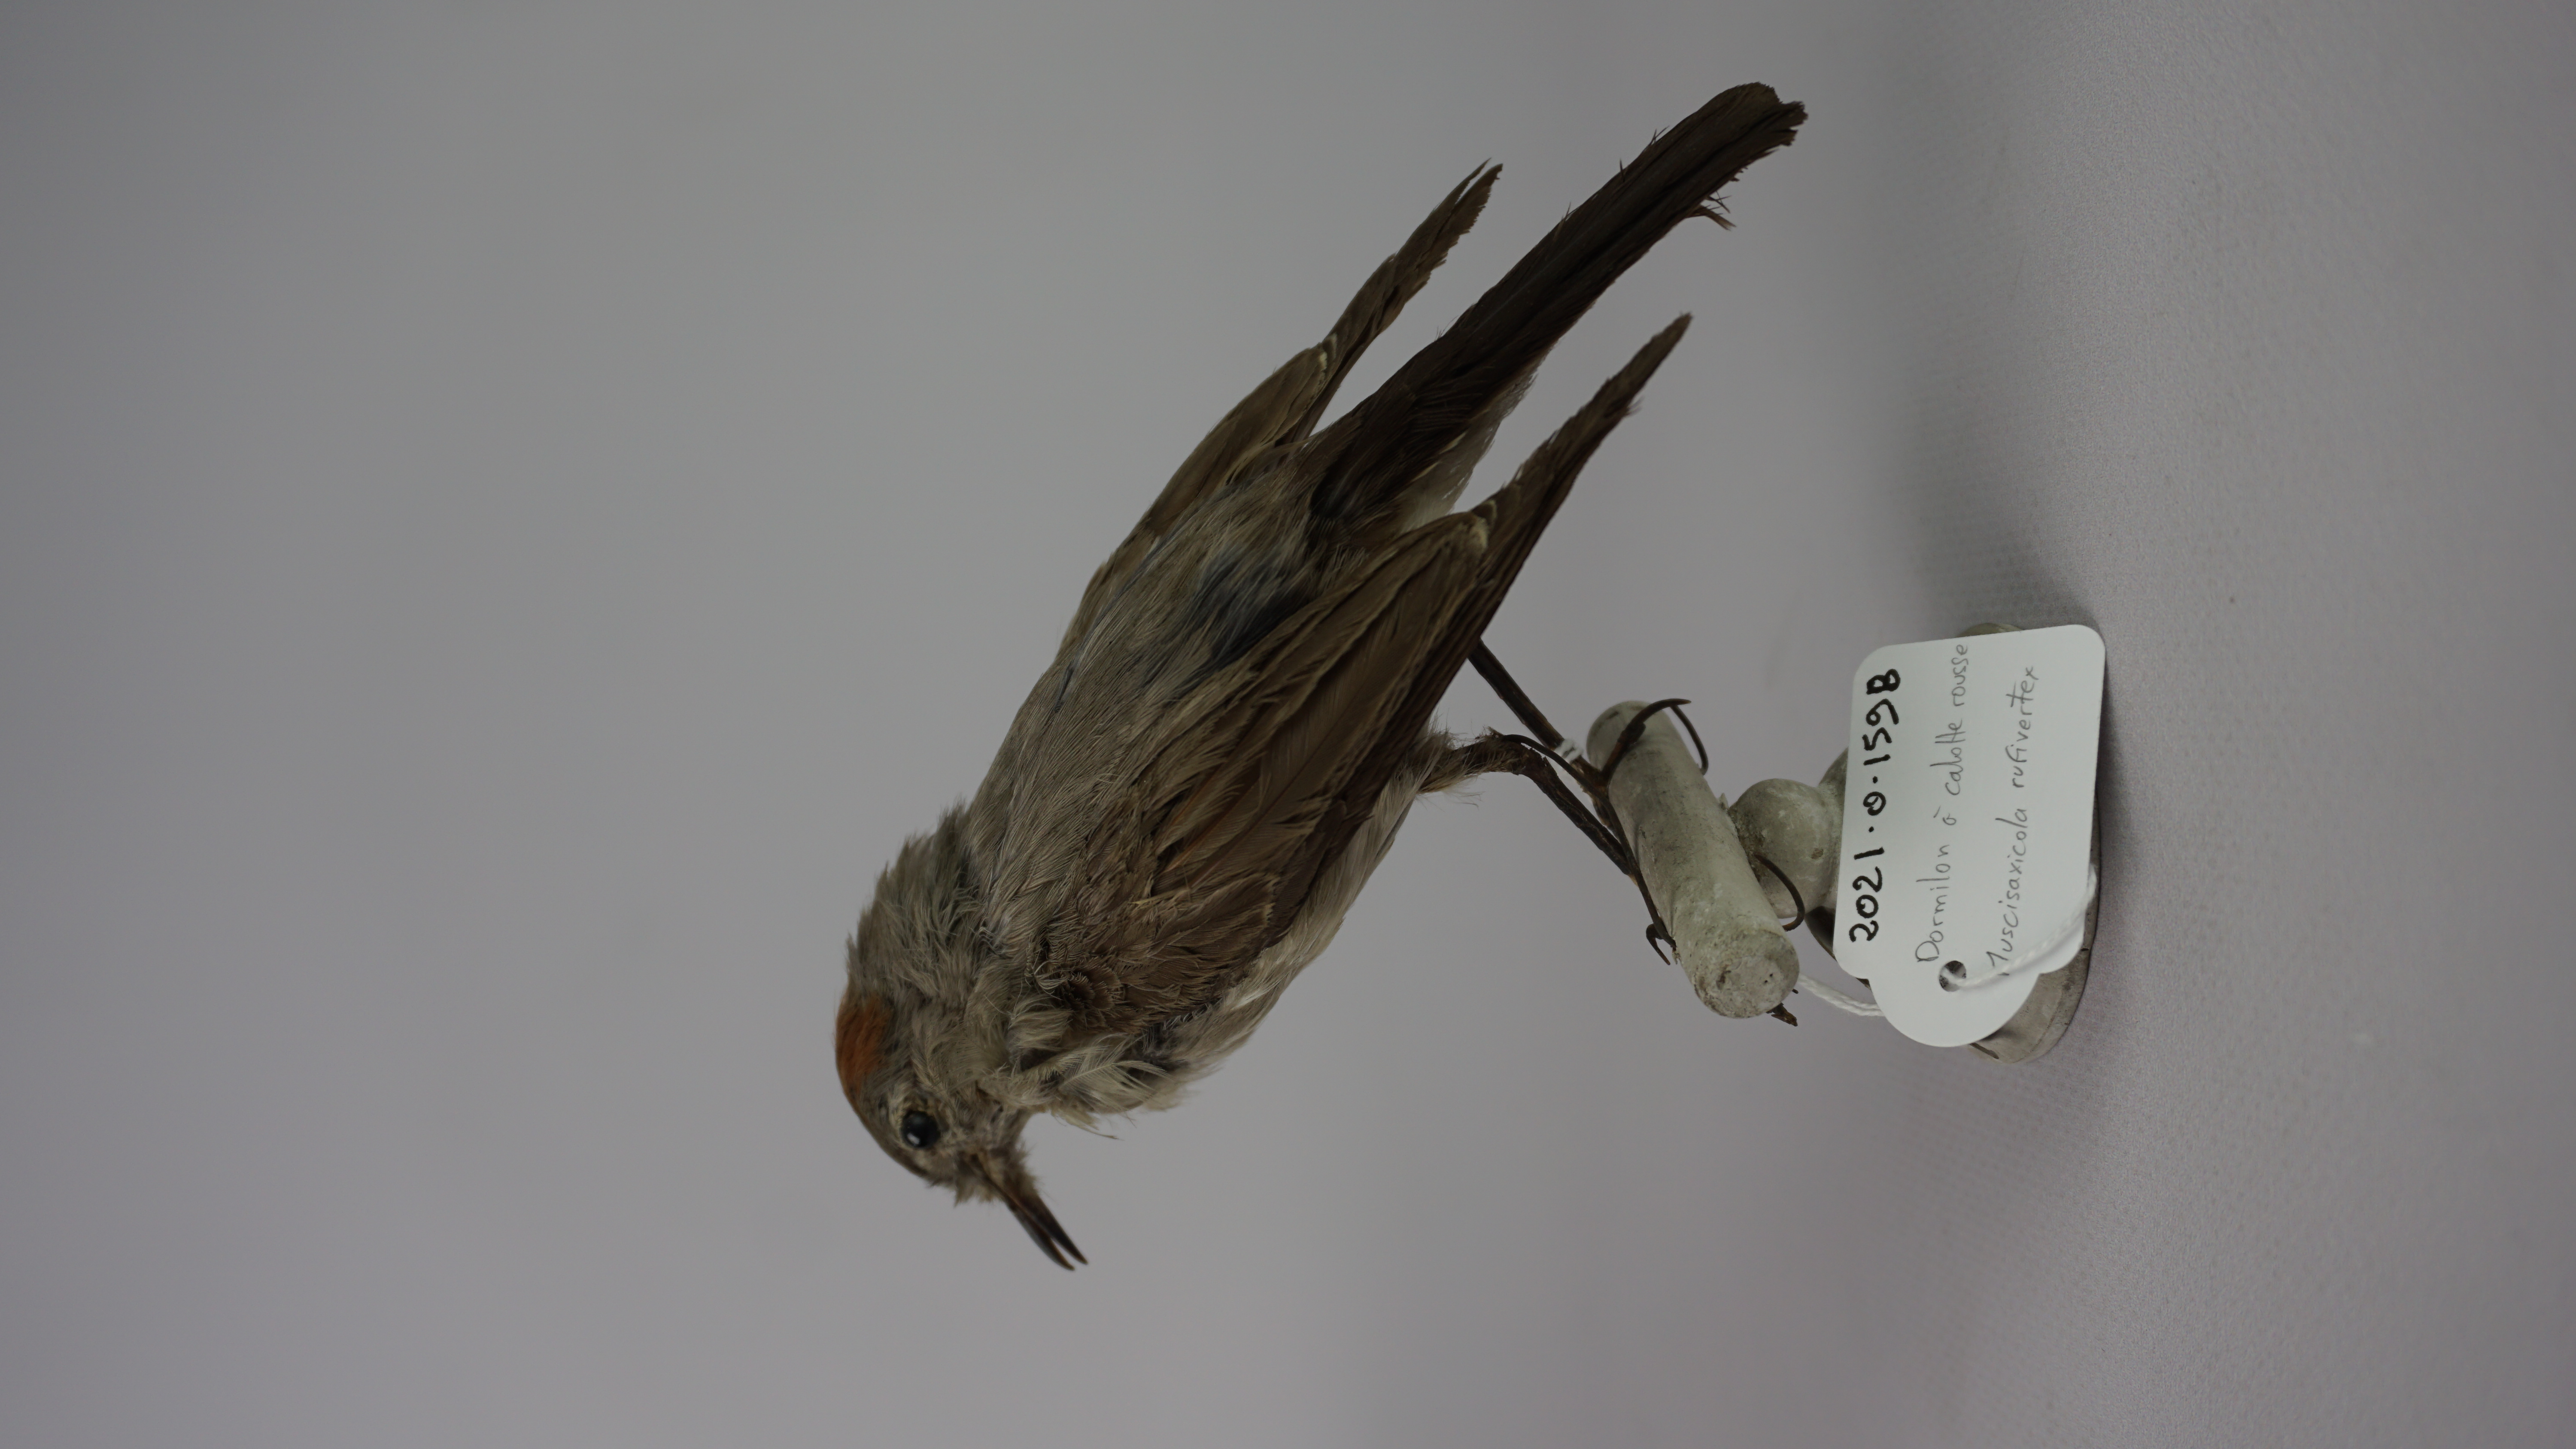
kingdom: Animalia
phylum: Chordata
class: Aves
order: Passeriformes
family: Tyrannidae
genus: Muscisaxicola
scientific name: Muscisaxicola rufivertex
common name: Rufous-naped ground tyrant
